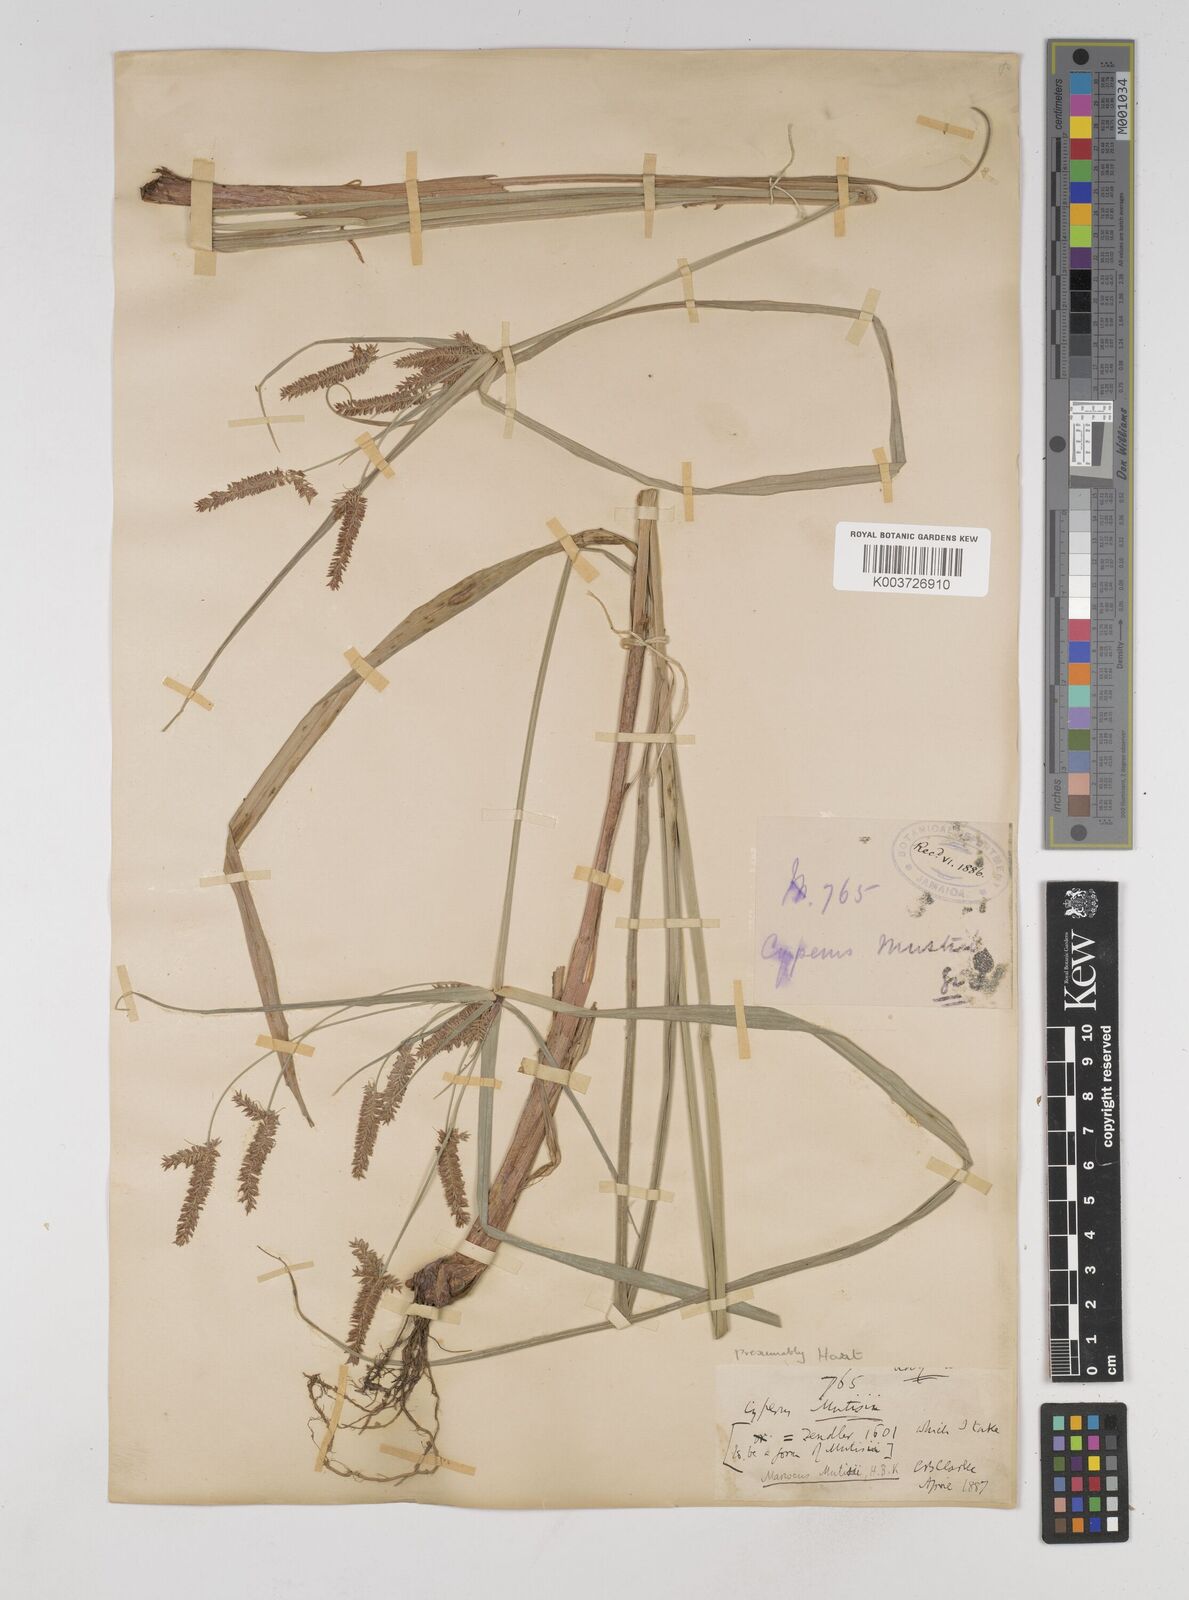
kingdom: Plantae
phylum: Tracheophyta
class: Liliopsida
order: Poales
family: Cyperaceae
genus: Cyperus
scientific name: Cyperus
